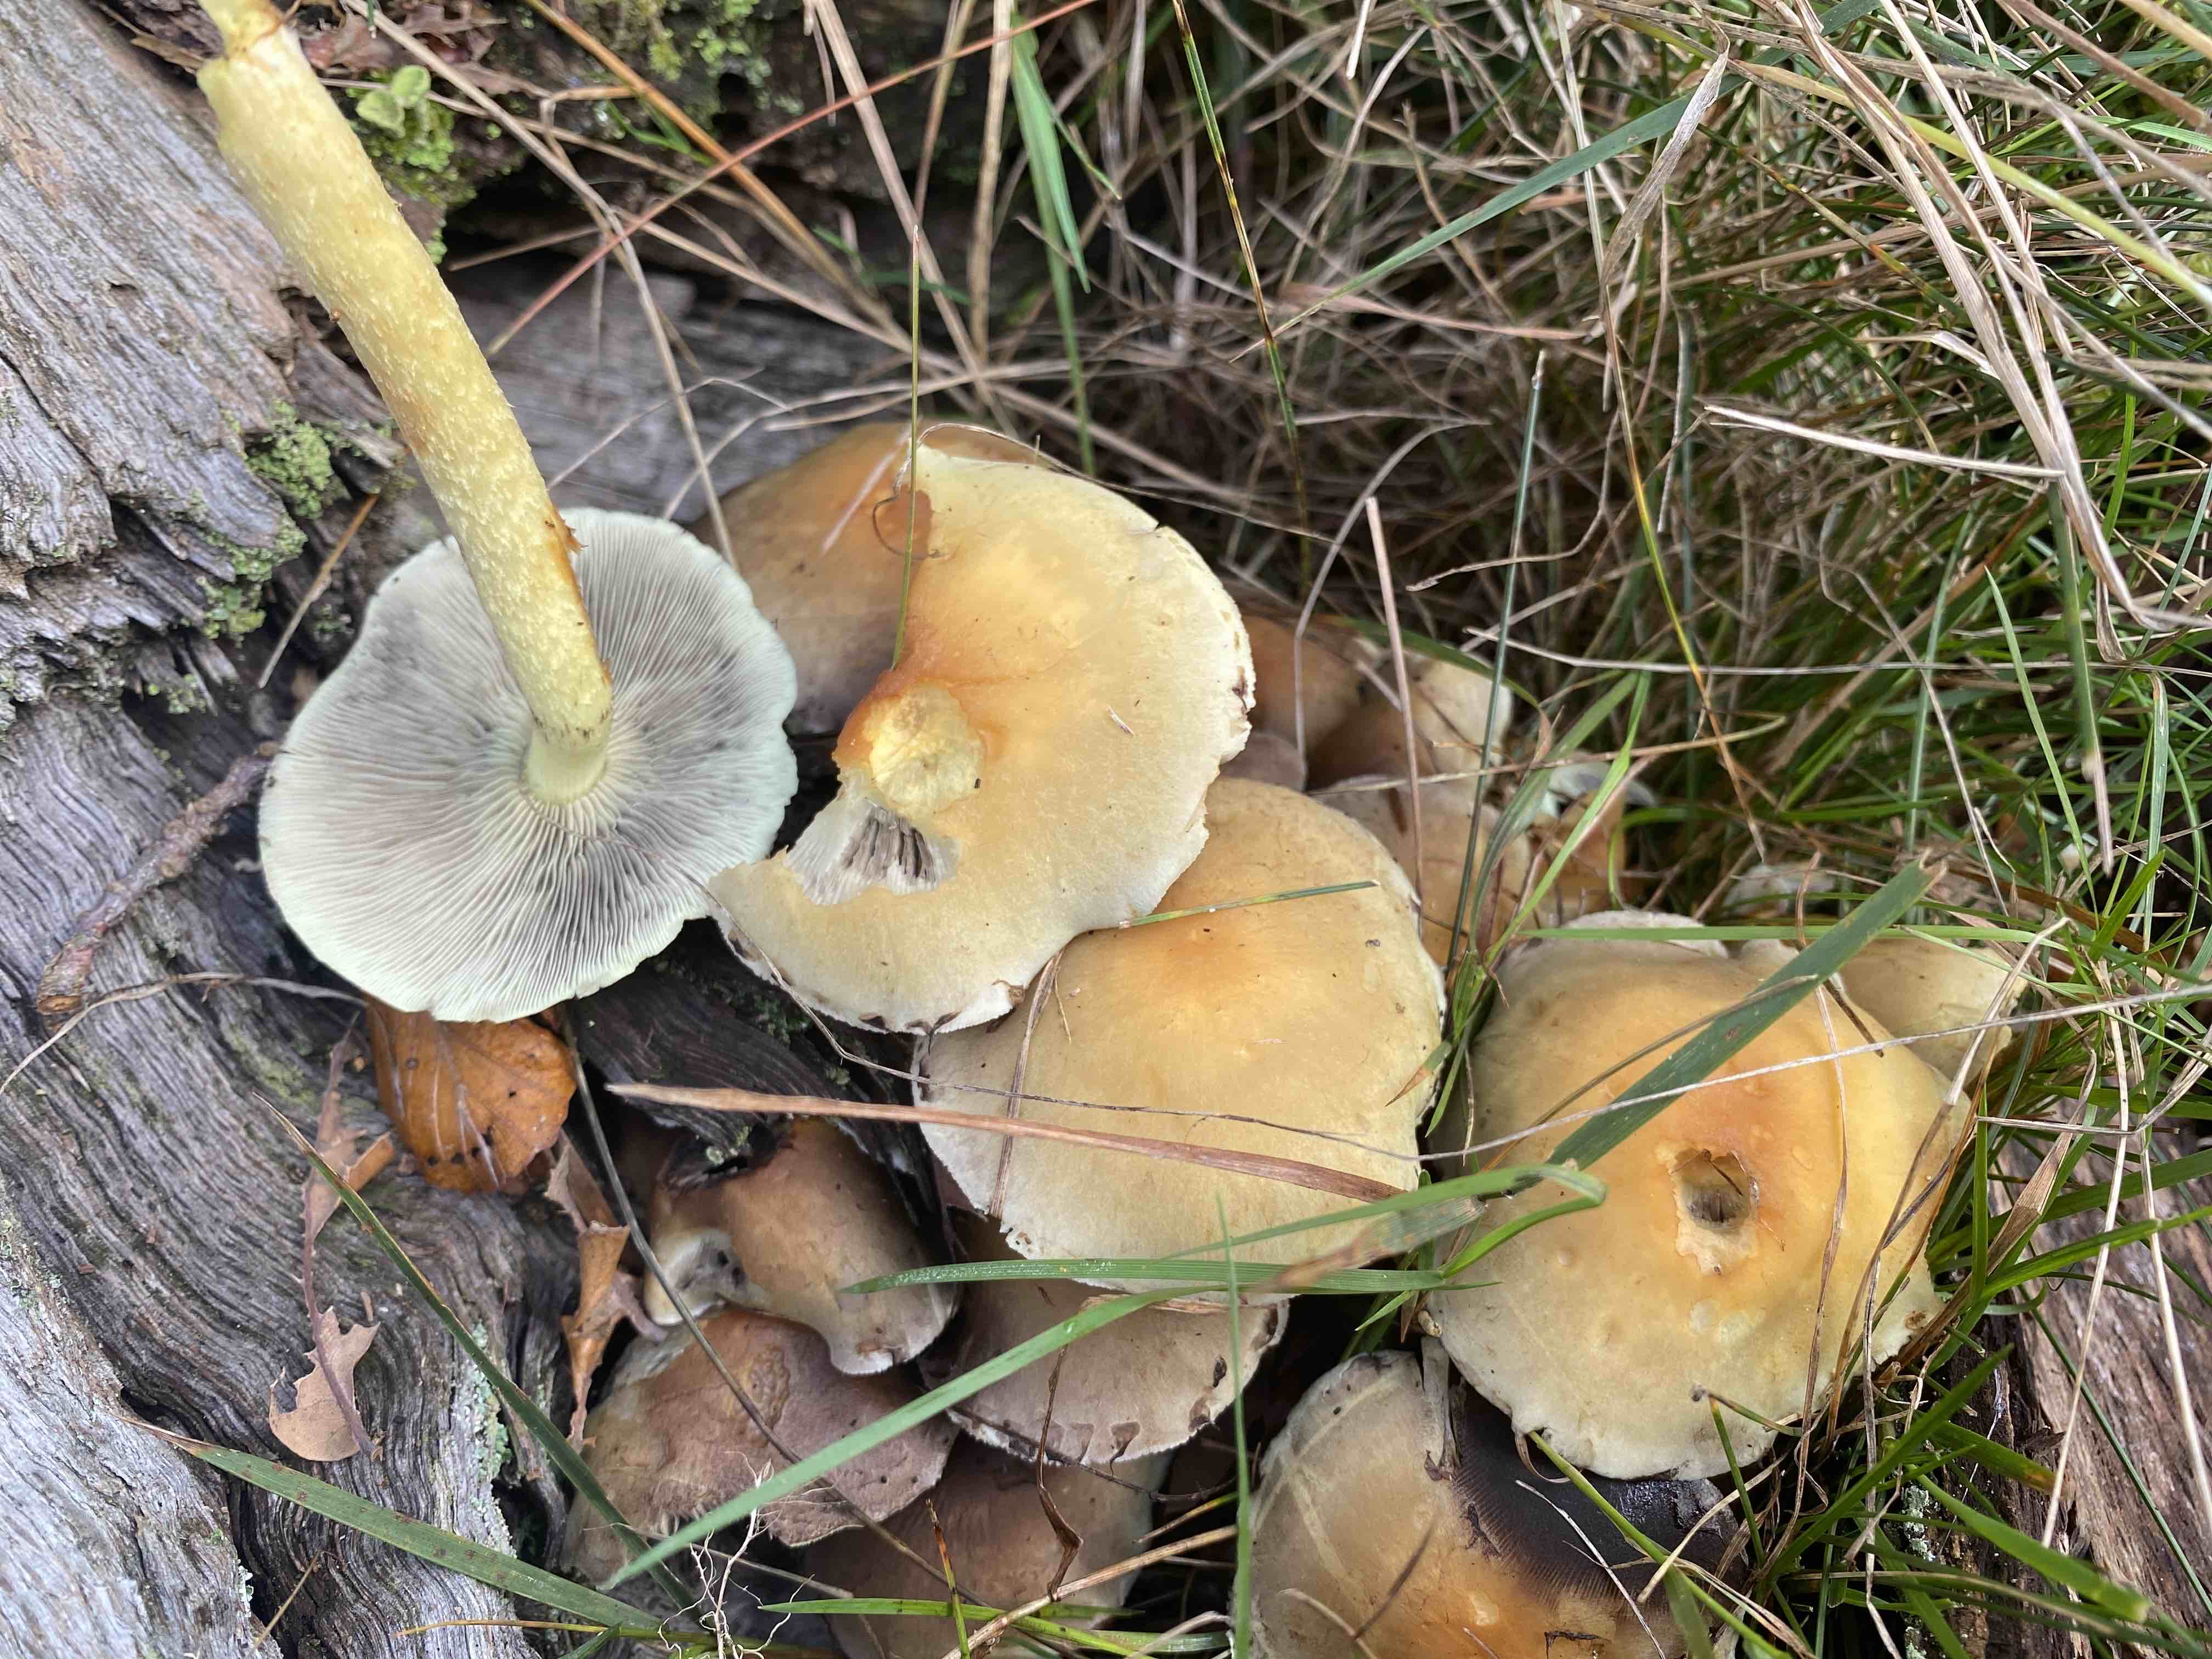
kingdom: Fungi
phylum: Basidiomycota
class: Agaricomycetes
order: Agaricales
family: Strophariaceae
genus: Hypholoma
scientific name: Hypholoma fasciculare
